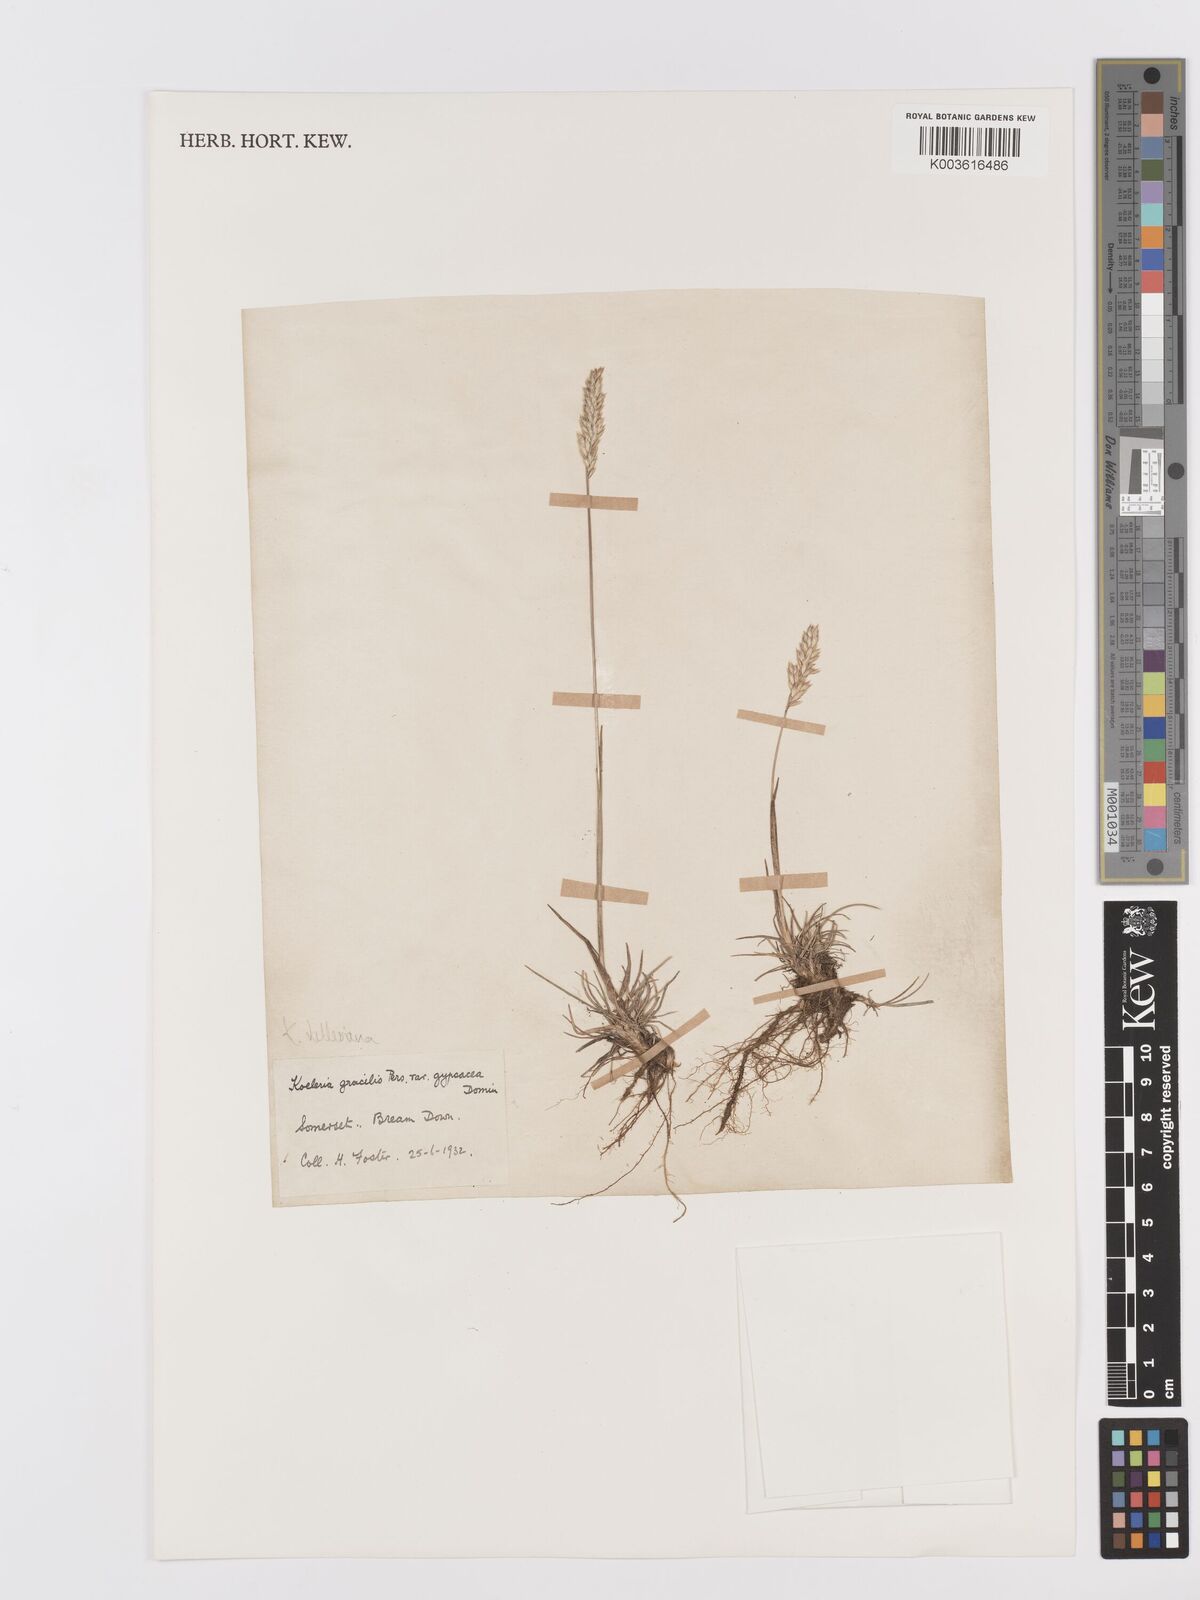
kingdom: Plantae
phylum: Tracheophyta
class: Liliopsida
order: Poales
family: Poaceae
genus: Koeleria
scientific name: Koeleria vallesiana
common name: Somerset hair-grass
